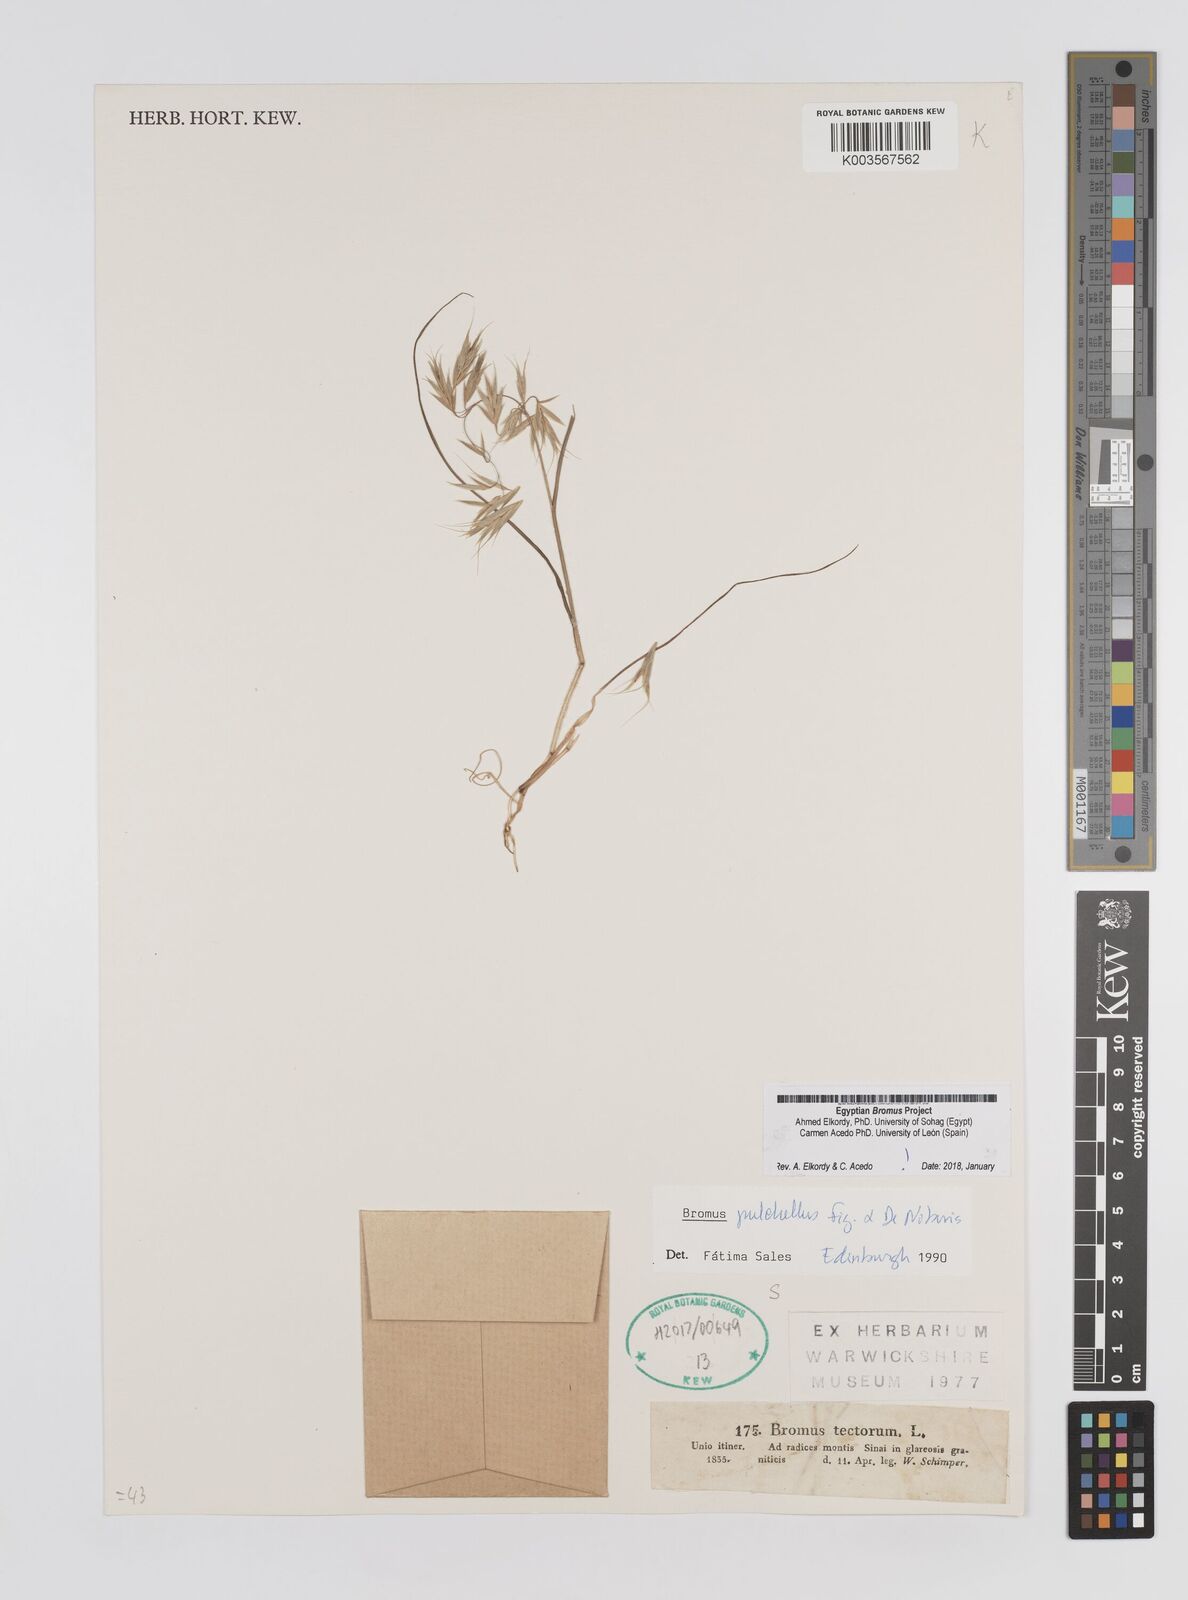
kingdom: Plantae
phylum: Tracheophyta
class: Liliopsida
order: Poales
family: Poaceae
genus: Bromus
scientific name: Bromus pectinatus
